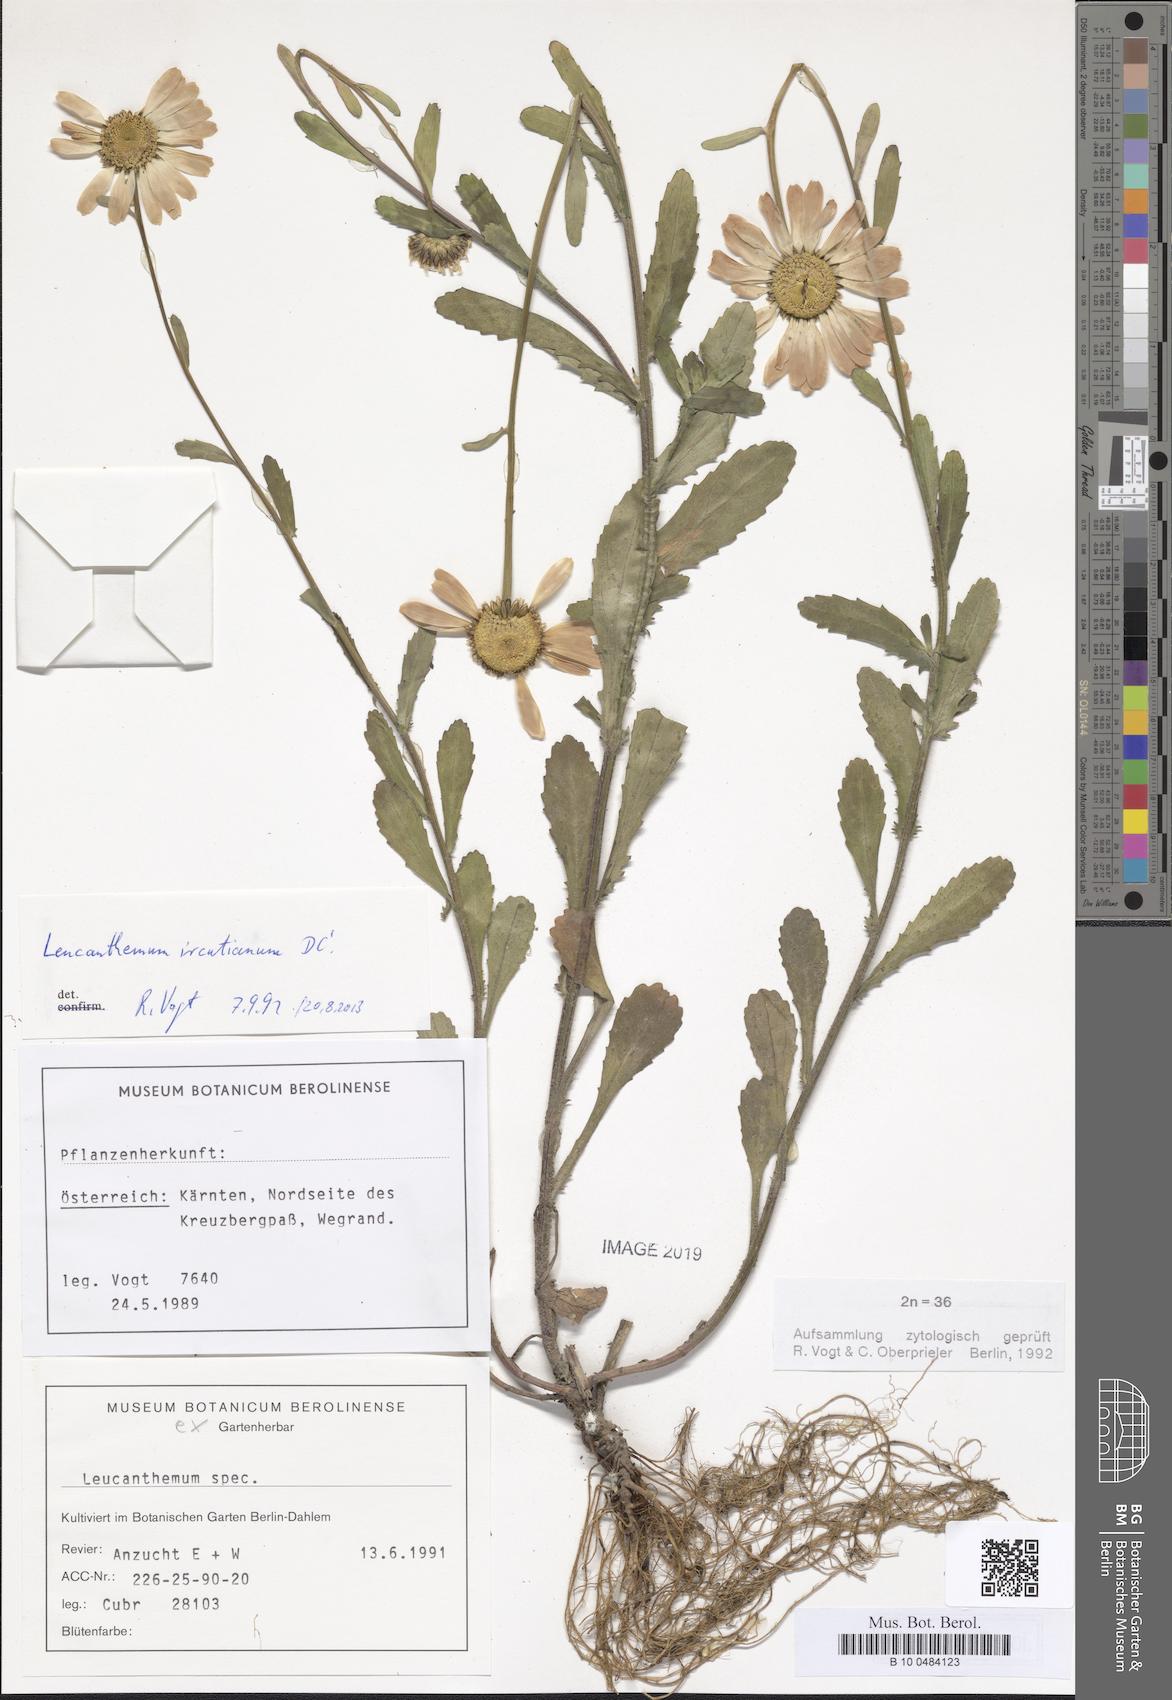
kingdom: Plantae
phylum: Tracheophyta
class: Magnoliopsida
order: Asterales
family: Asteraceae
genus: Leucanthemum
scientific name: Leucanthemum ircutianum
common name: Daisy
